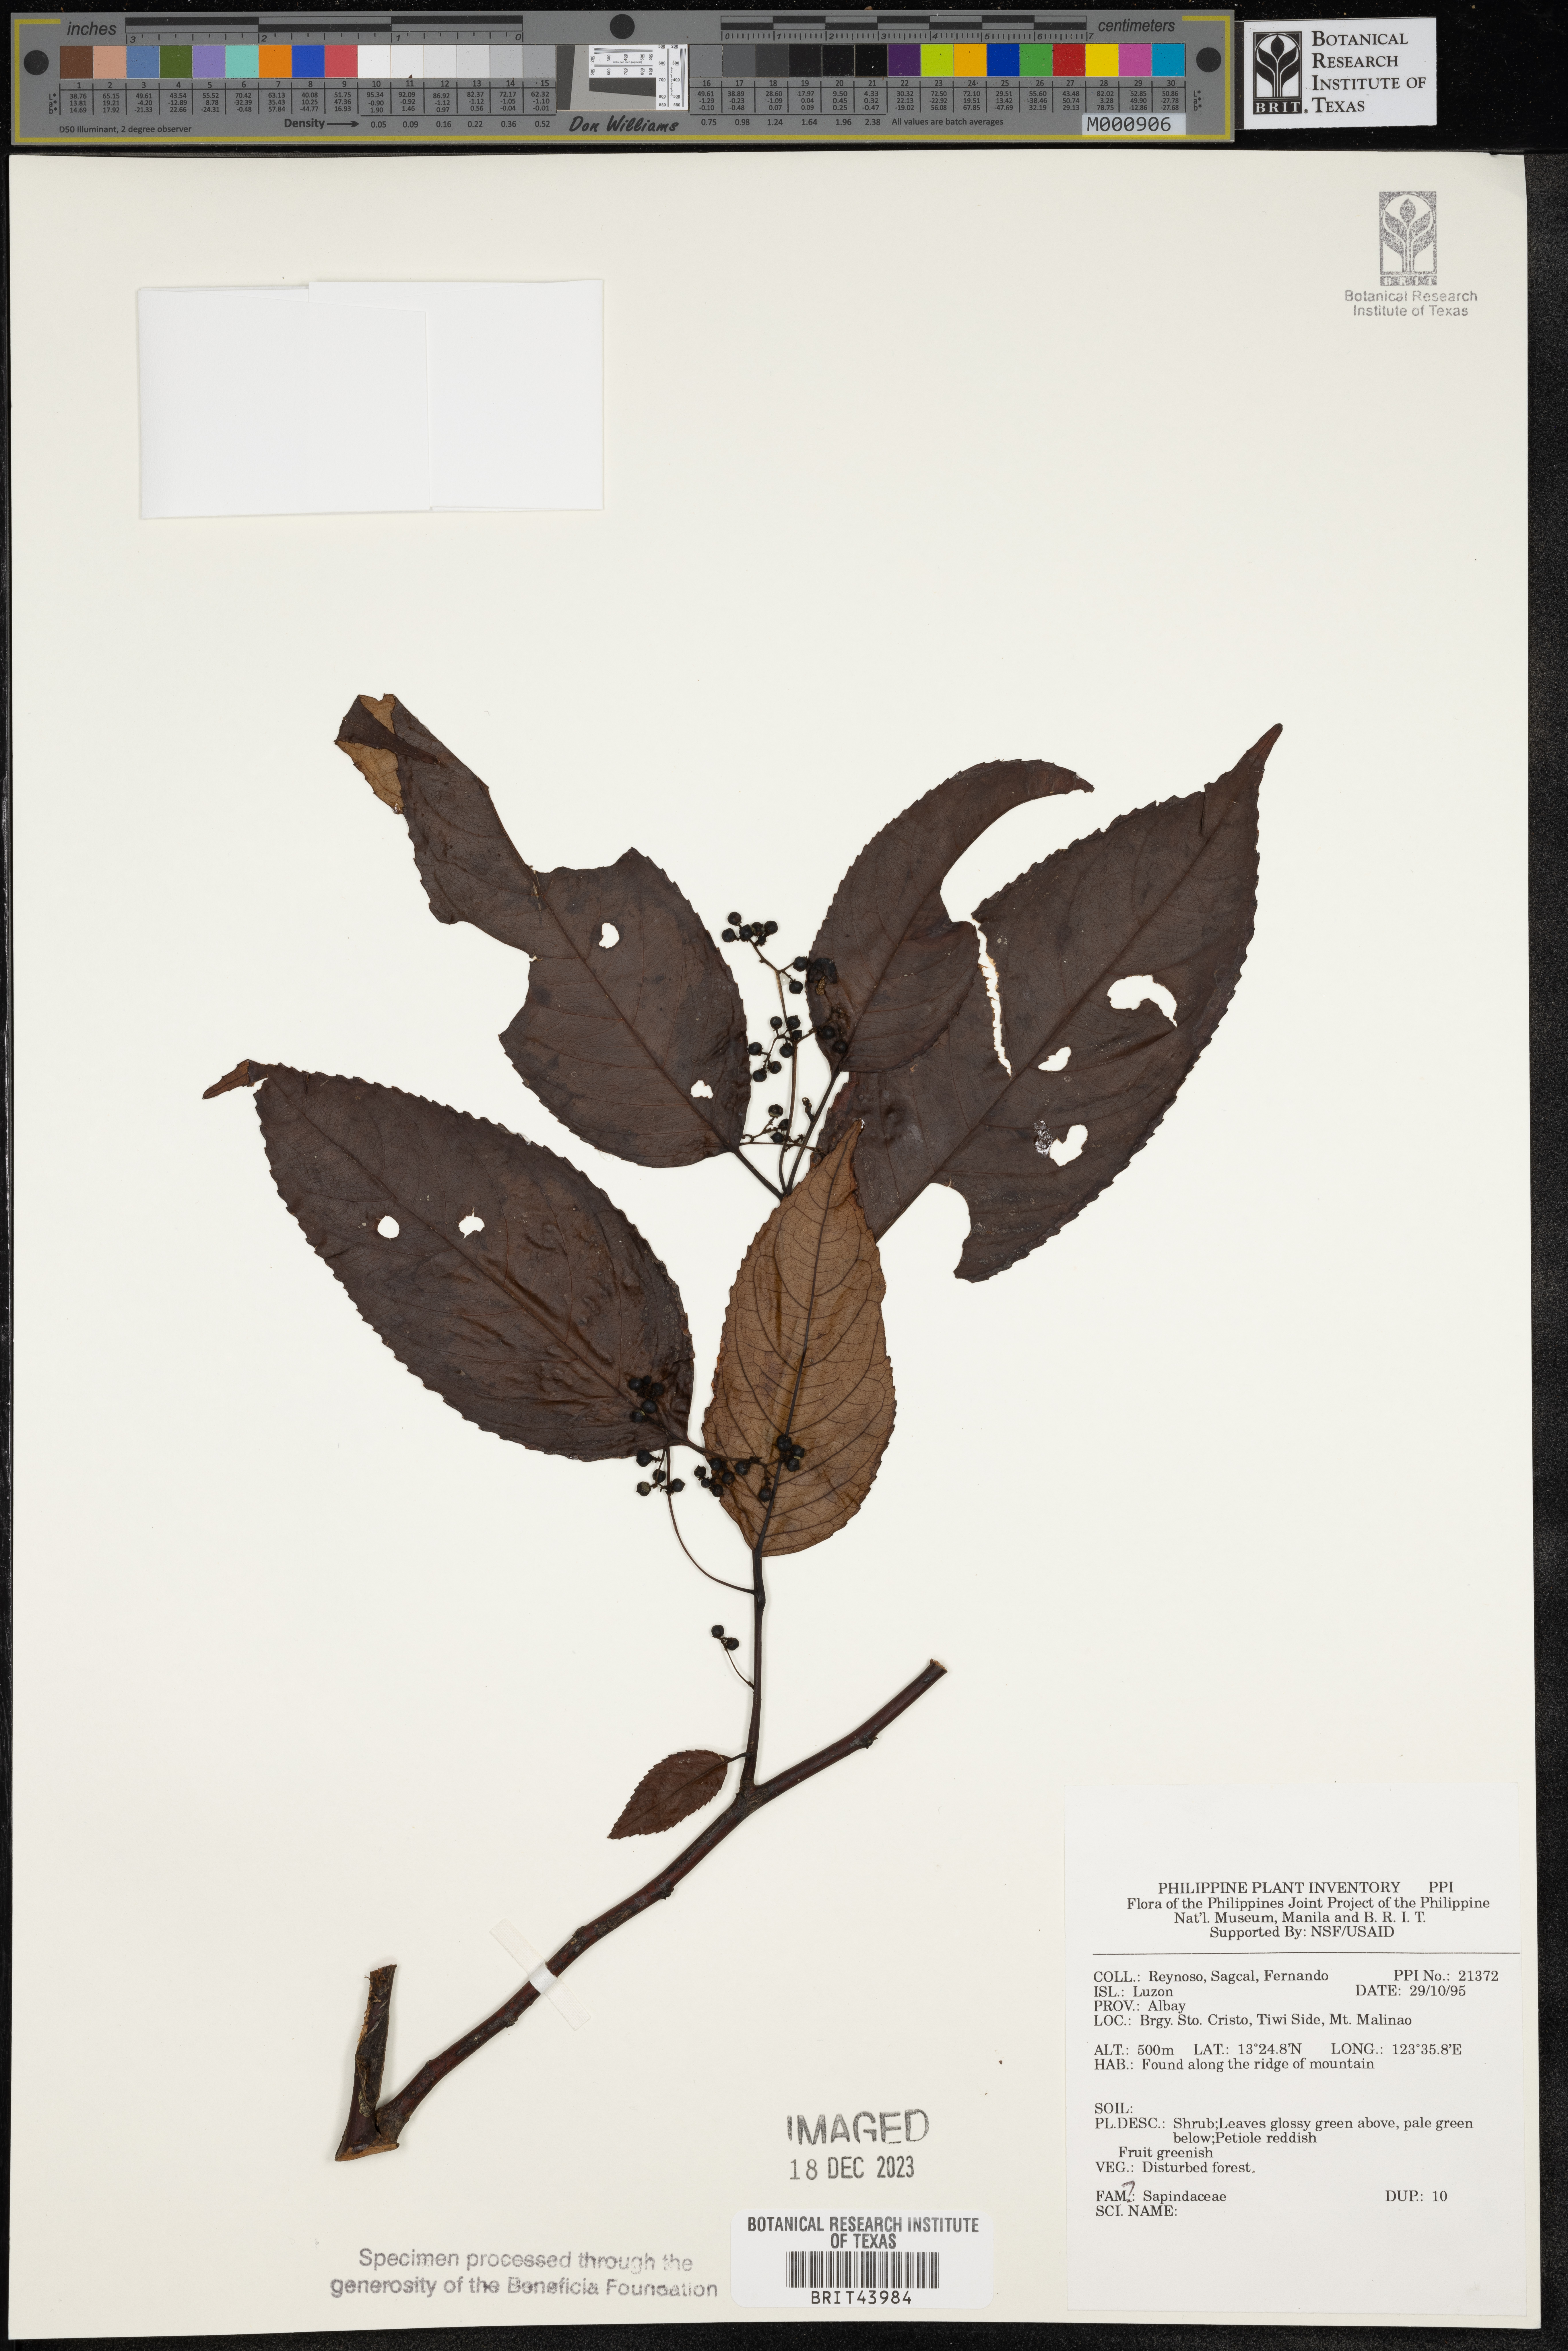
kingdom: Plantae
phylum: Tracheophyta
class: Magnoliopsida
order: Sapindales
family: Sapindaceae
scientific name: Sapindaceae
